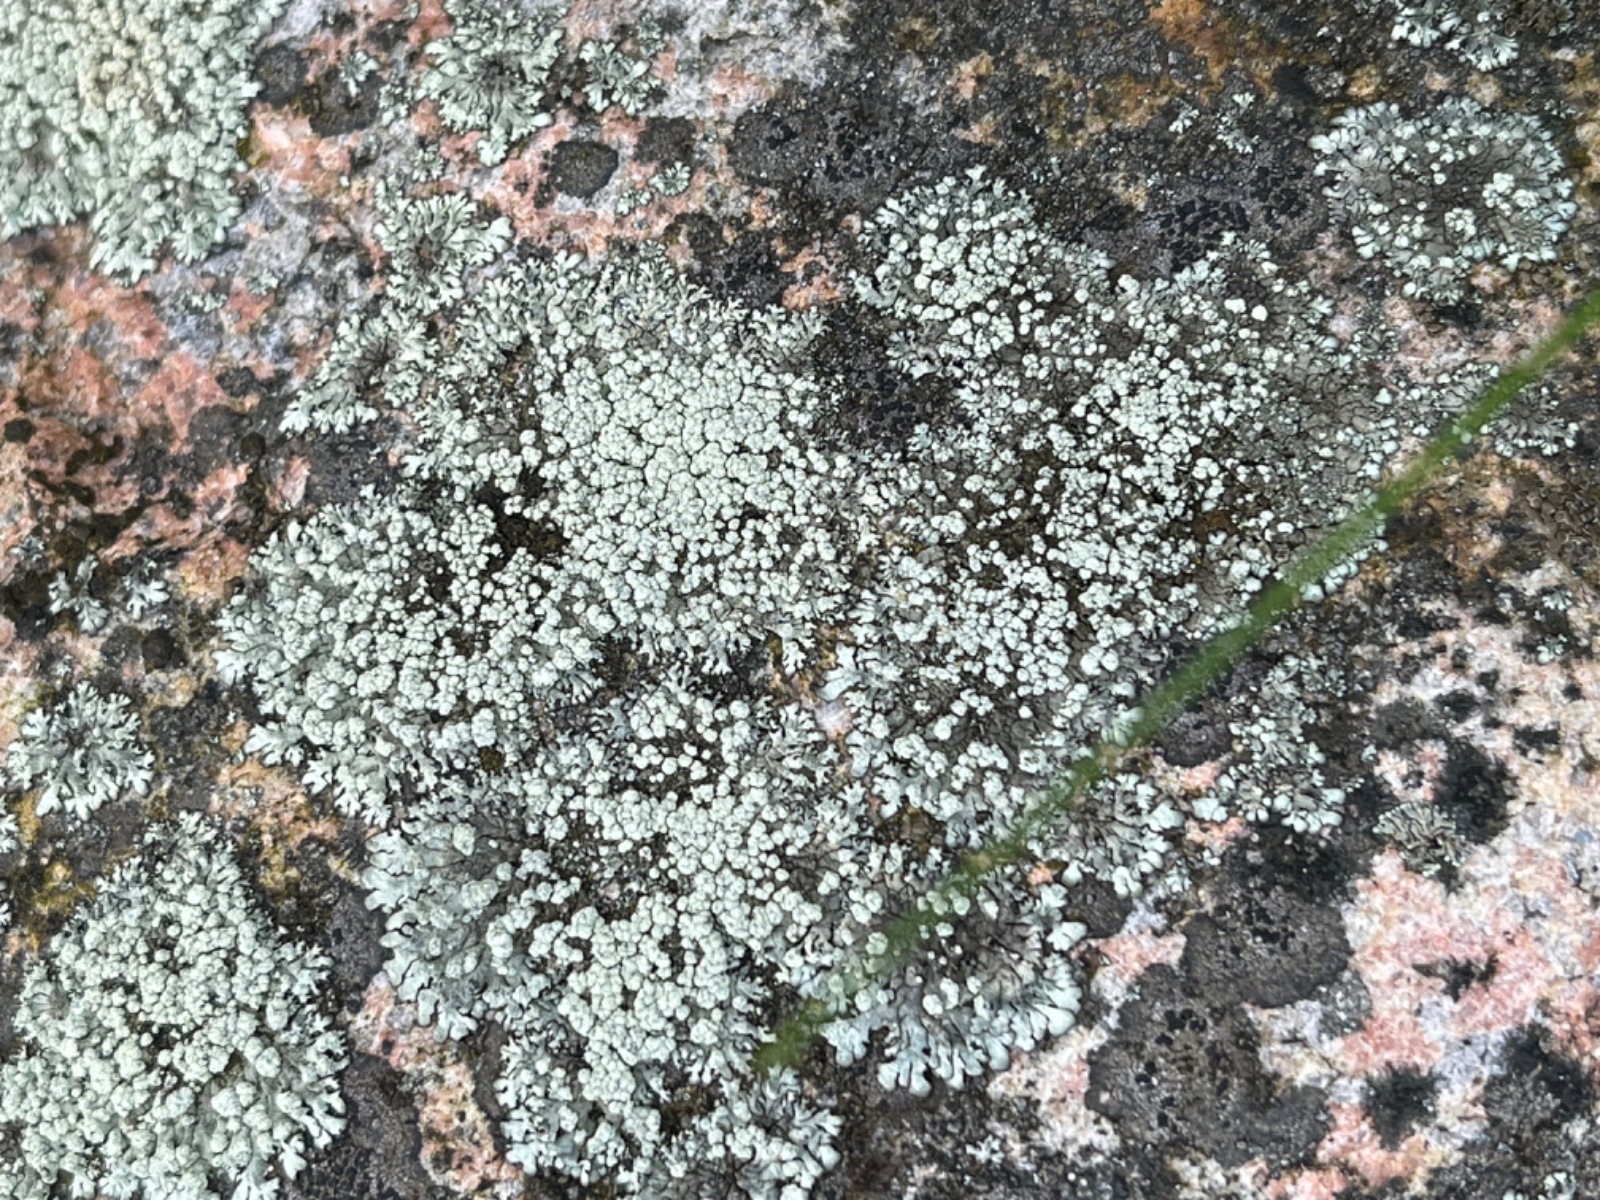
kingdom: Fungi
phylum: Ascomycota
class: Lecanoromycetes
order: Lecanorales
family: Parmeliaceae
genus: Xanthoparmelia
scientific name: Xanthoparmelia mougeotii
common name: liden skållav
